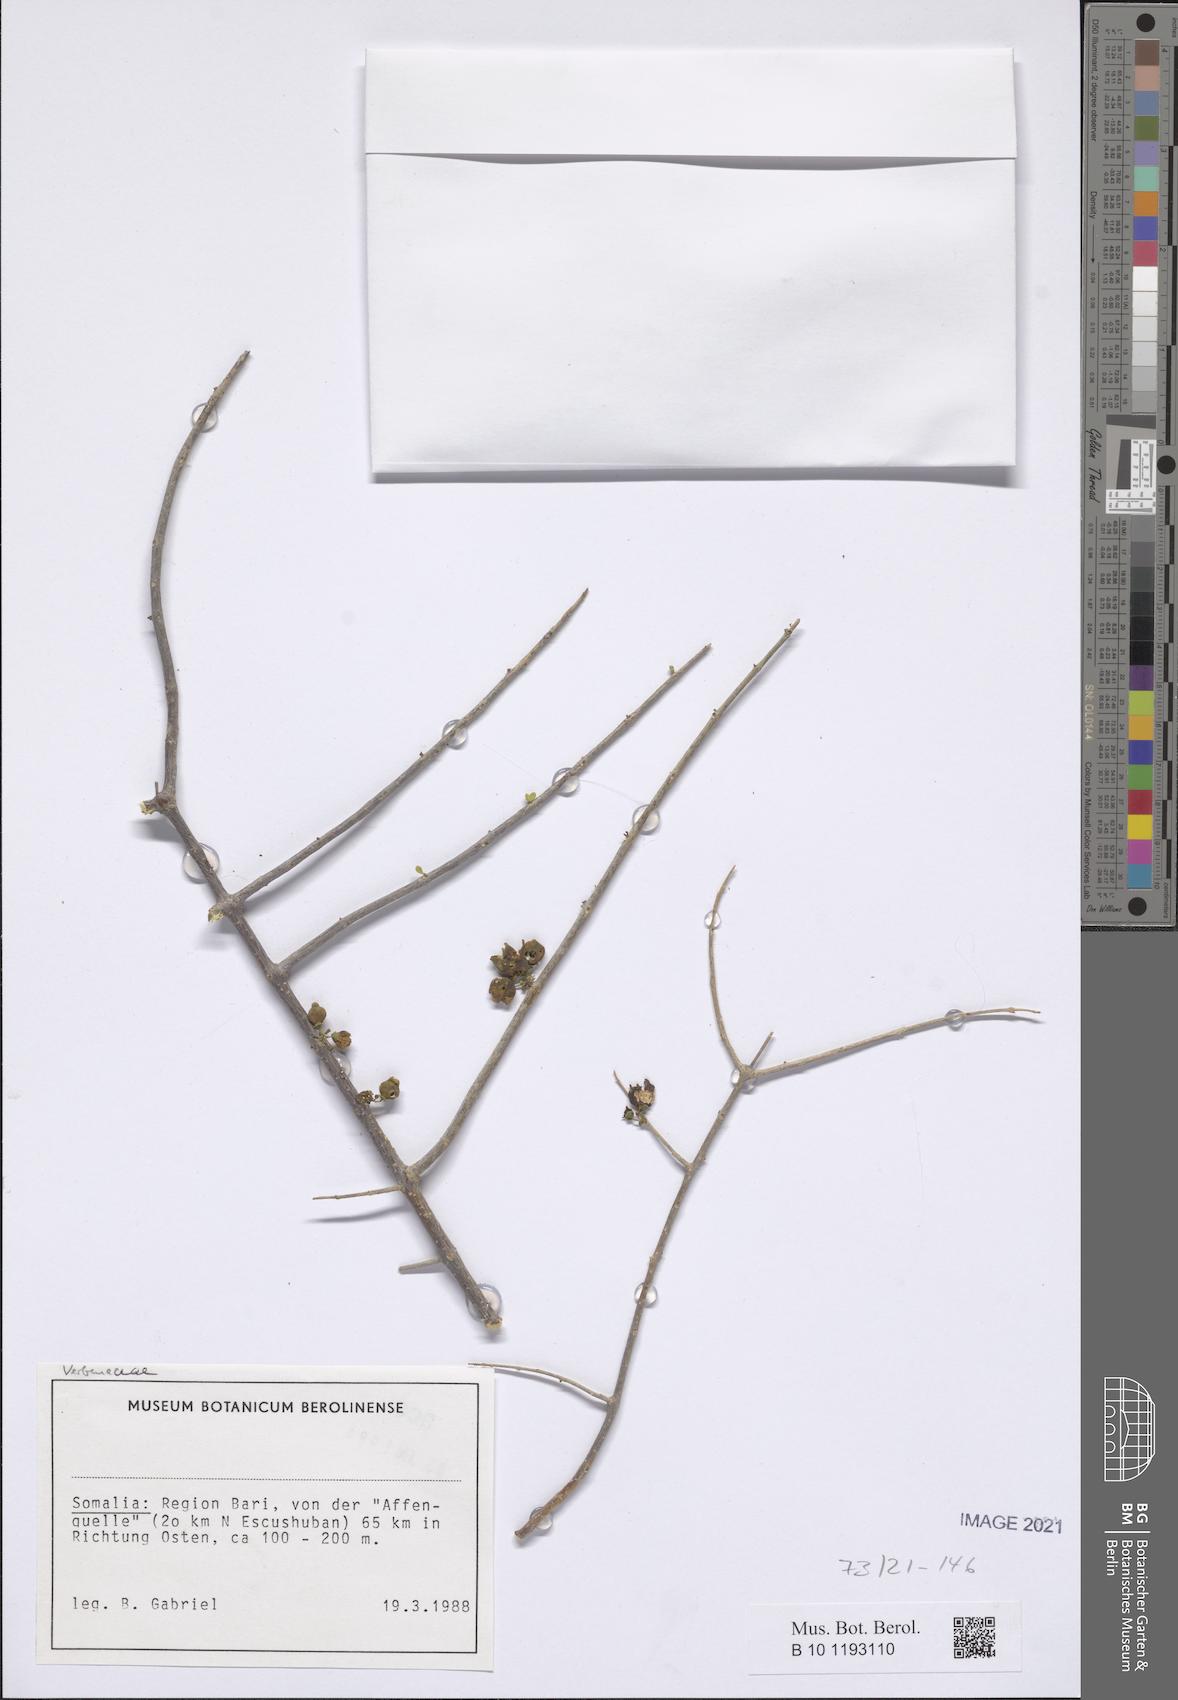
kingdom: Plantae
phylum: Tracheophyta
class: Magnoliopsida
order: Brassicales
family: Resedaceae
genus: Ochradenus
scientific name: Ochradenus somalensis
